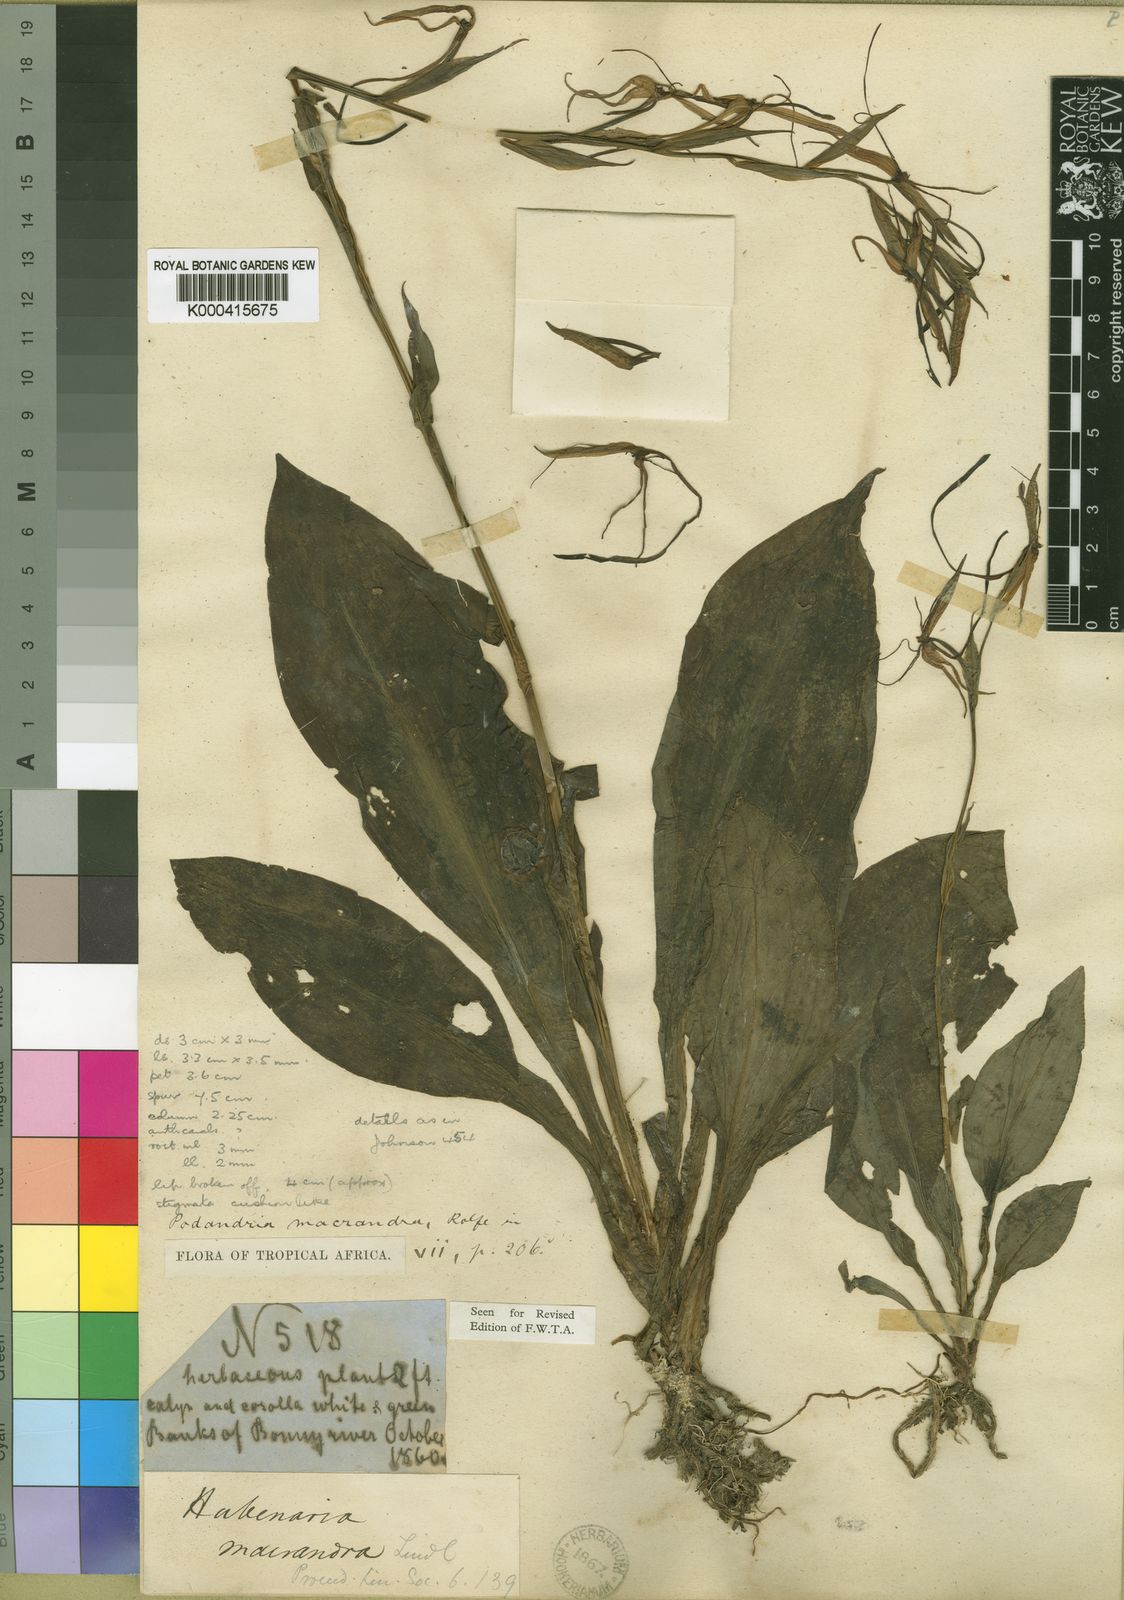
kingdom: Plantae
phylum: Tracheophyta
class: Liliopsida
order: Asparagales
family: Orchidaceae
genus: Habenaria
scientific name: Habenaria macrandra
